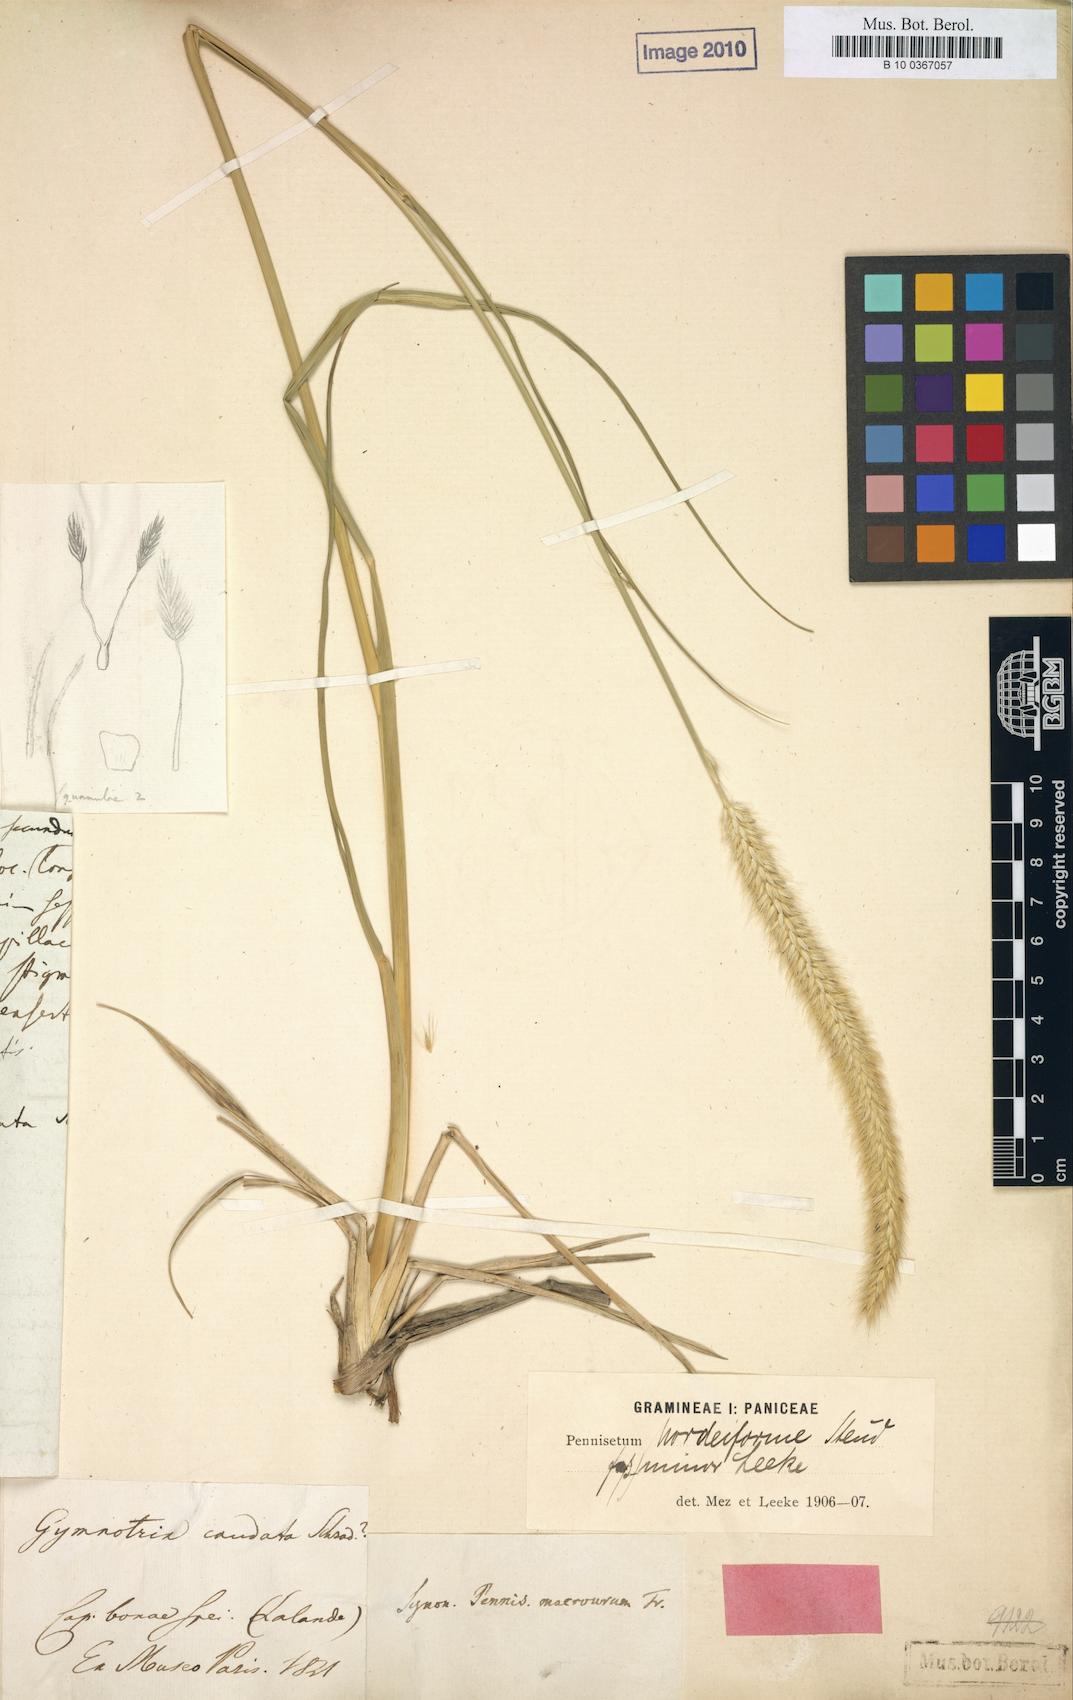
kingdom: Plantae
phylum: Tracheophyta
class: Liliopsida
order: Poales
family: Poaceae
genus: Cenchrus
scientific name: Cenchrus caudatus
